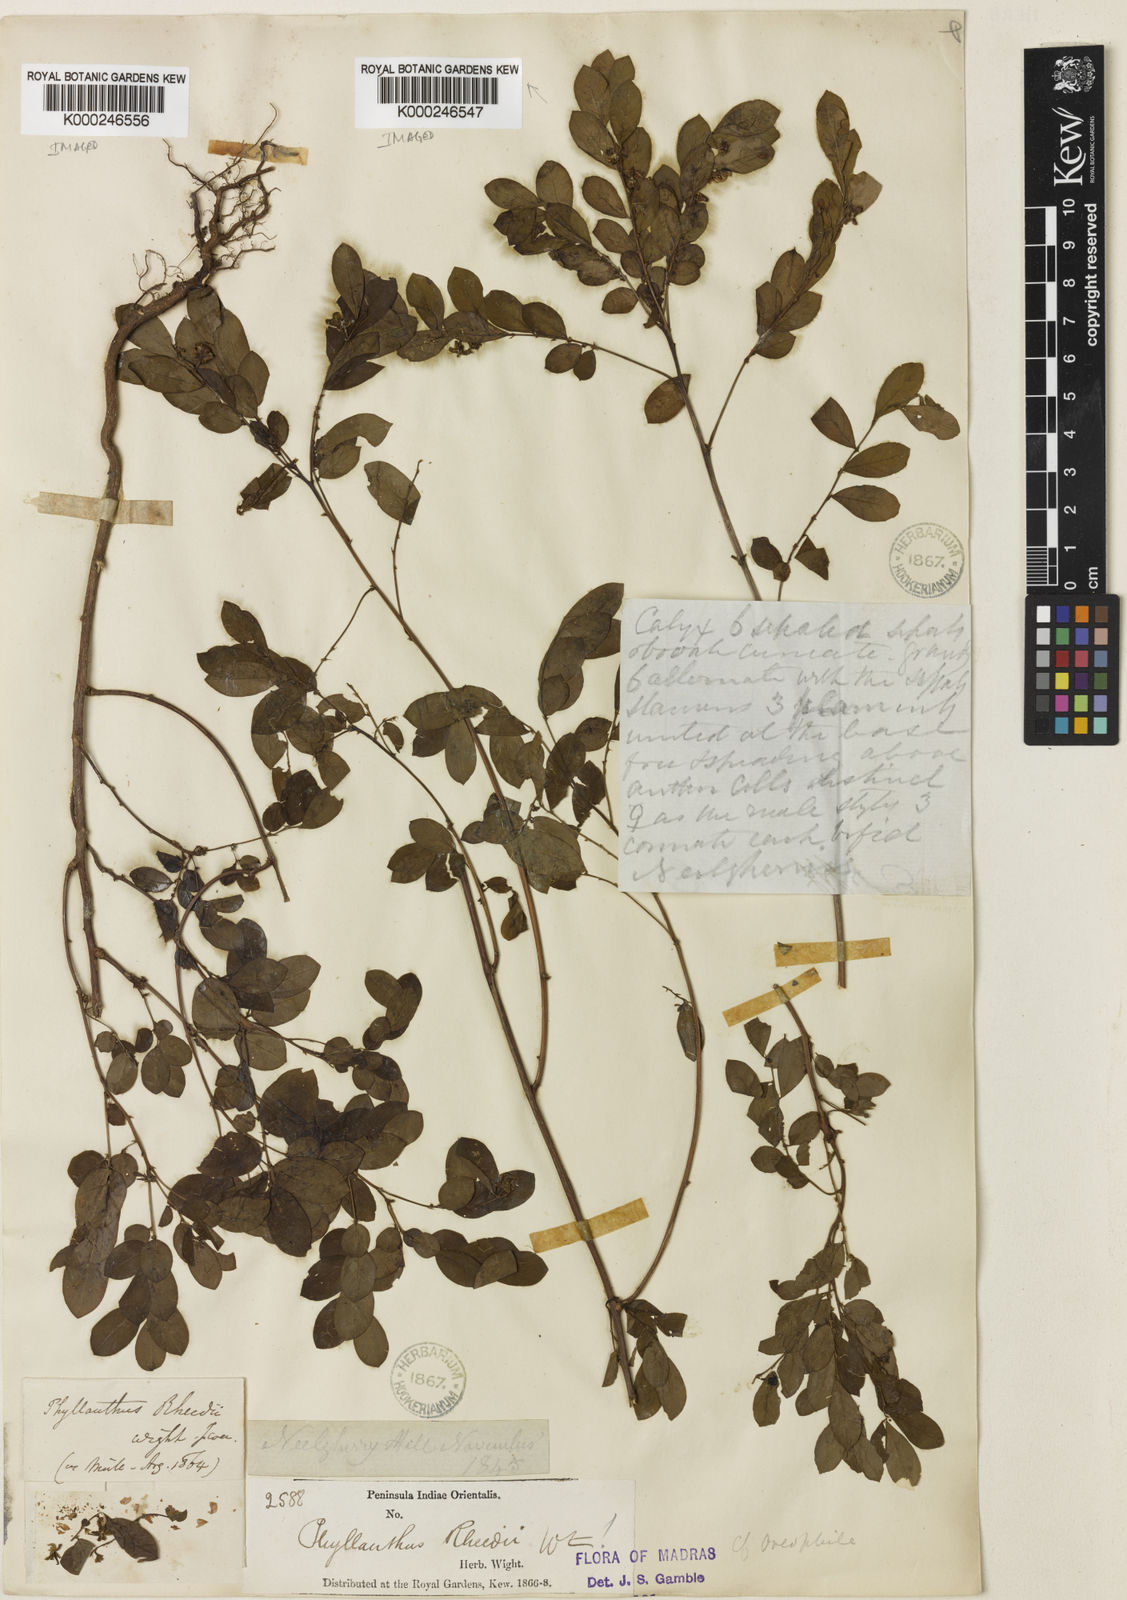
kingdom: Plantae
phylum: Tracheophyta
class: Magnoliopsida
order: Malpighiales
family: Phyllanthaceae
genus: Phyllanthus
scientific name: Phyllanthus rheedei
